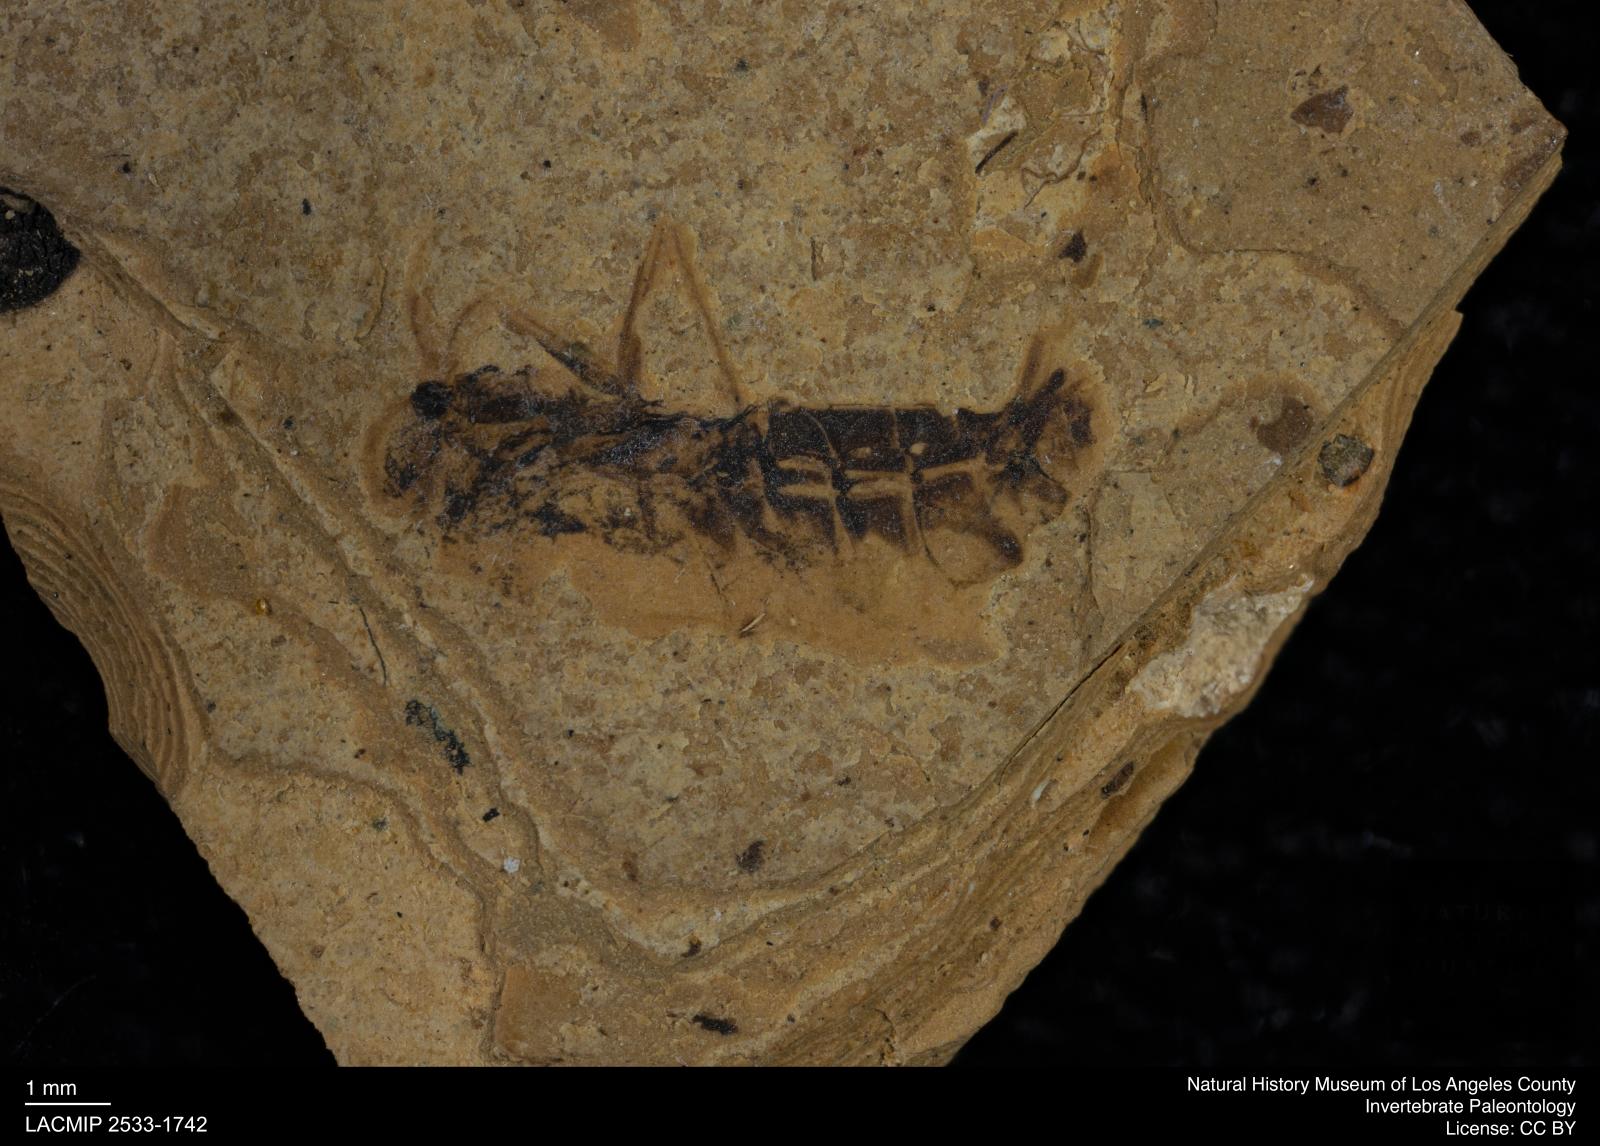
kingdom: Animalia
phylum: Arthropoda
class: Insecta
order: Hemiptera
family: Notonectidae
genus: Notonecta
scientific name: Notonecta
